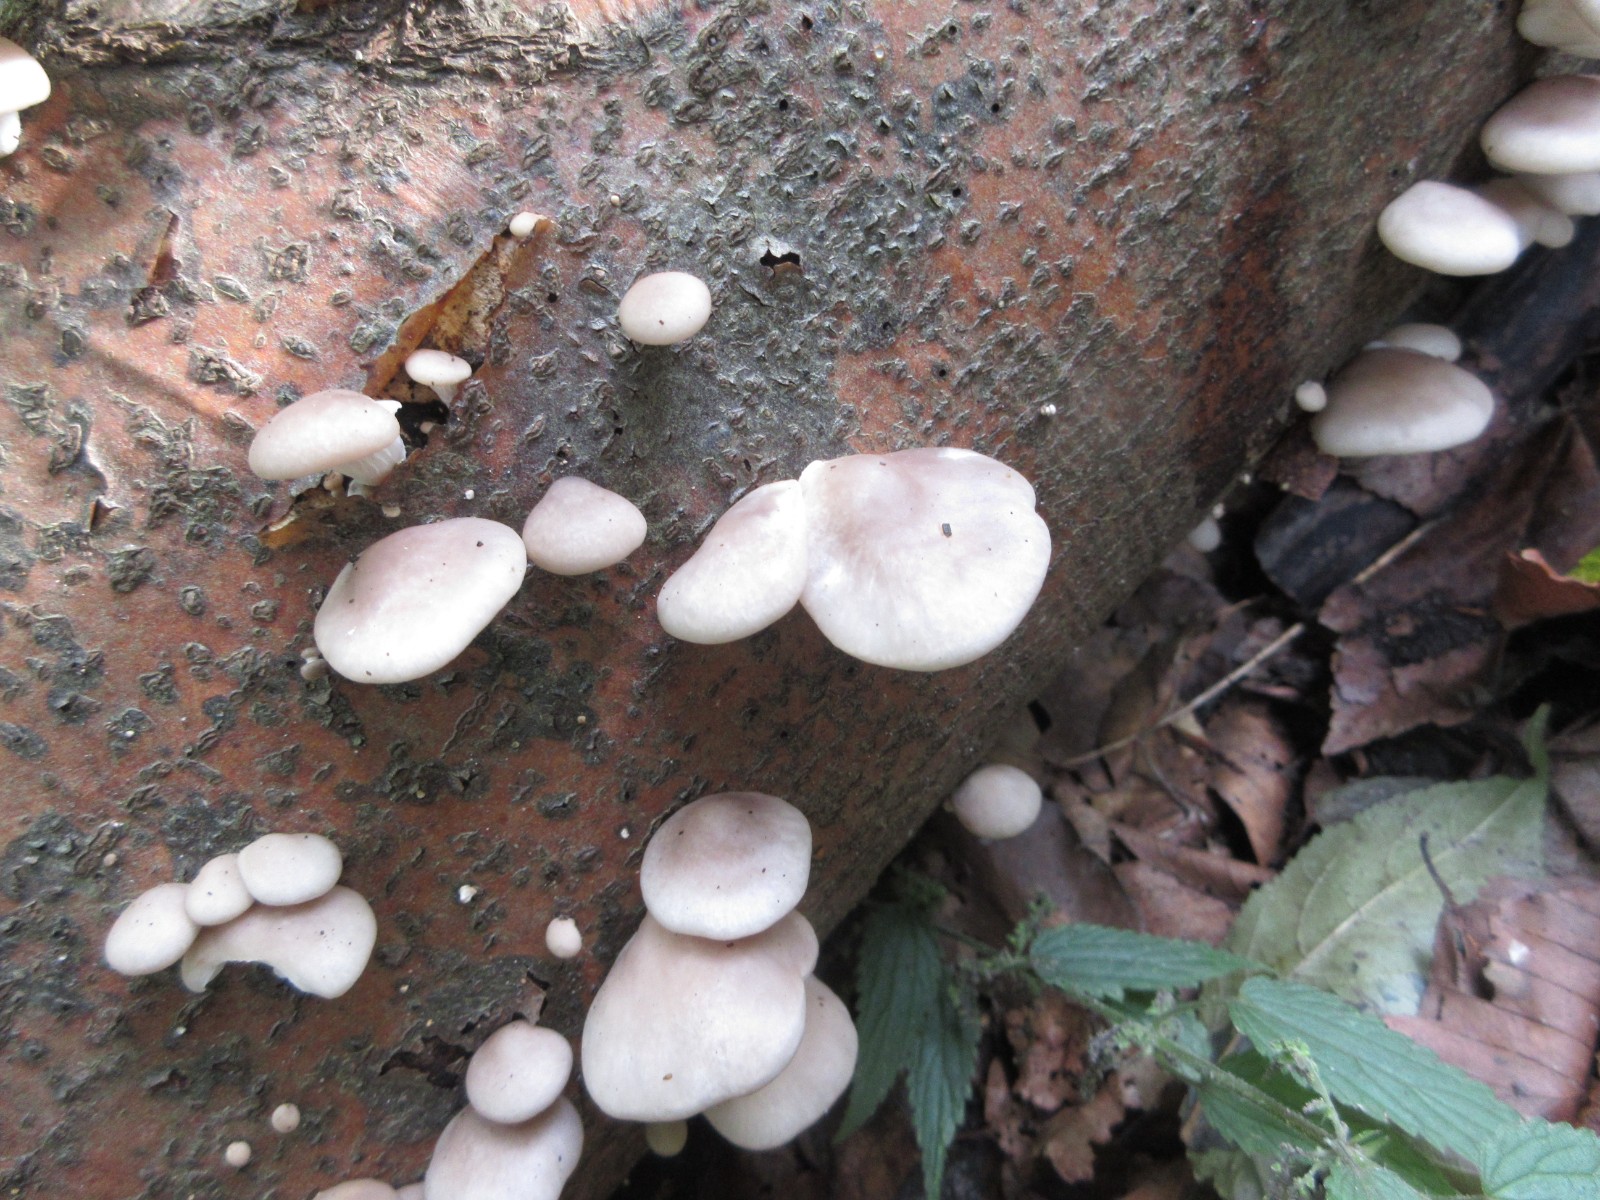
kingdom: Fungi
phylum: Basidiomycota
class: Agaricomycetes
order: Agaricales
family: Pleurotaceae
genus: Pleurotus
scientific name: Pleurotus ostreatus
